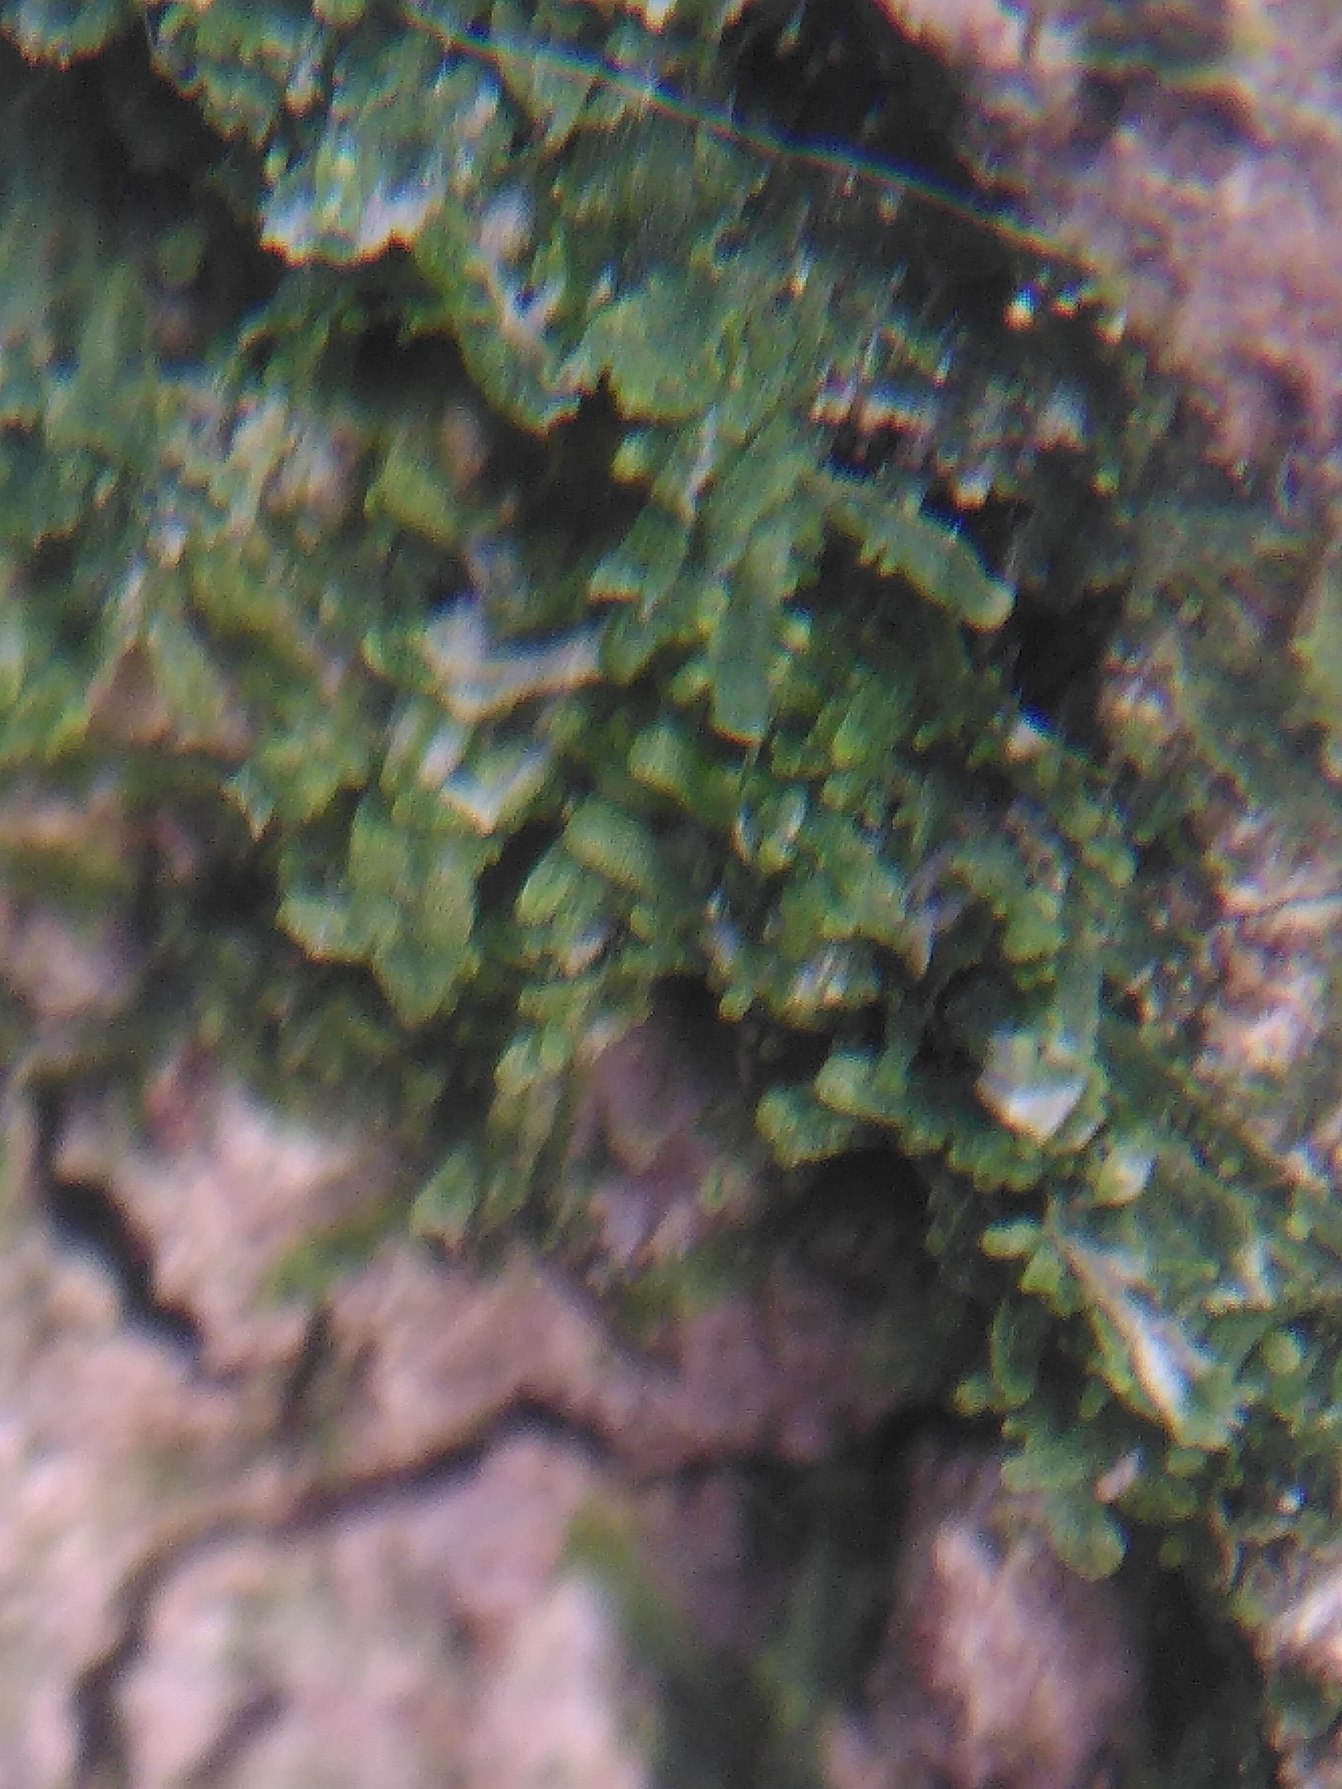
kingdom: Plantae
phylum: Marchantiophyta
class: Jungermanniopsida
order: Metzgeriales
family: Metzgeriaceae
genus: Metzgeria
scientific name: Metzgeria furcata
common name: Almindelig gaffelløv
